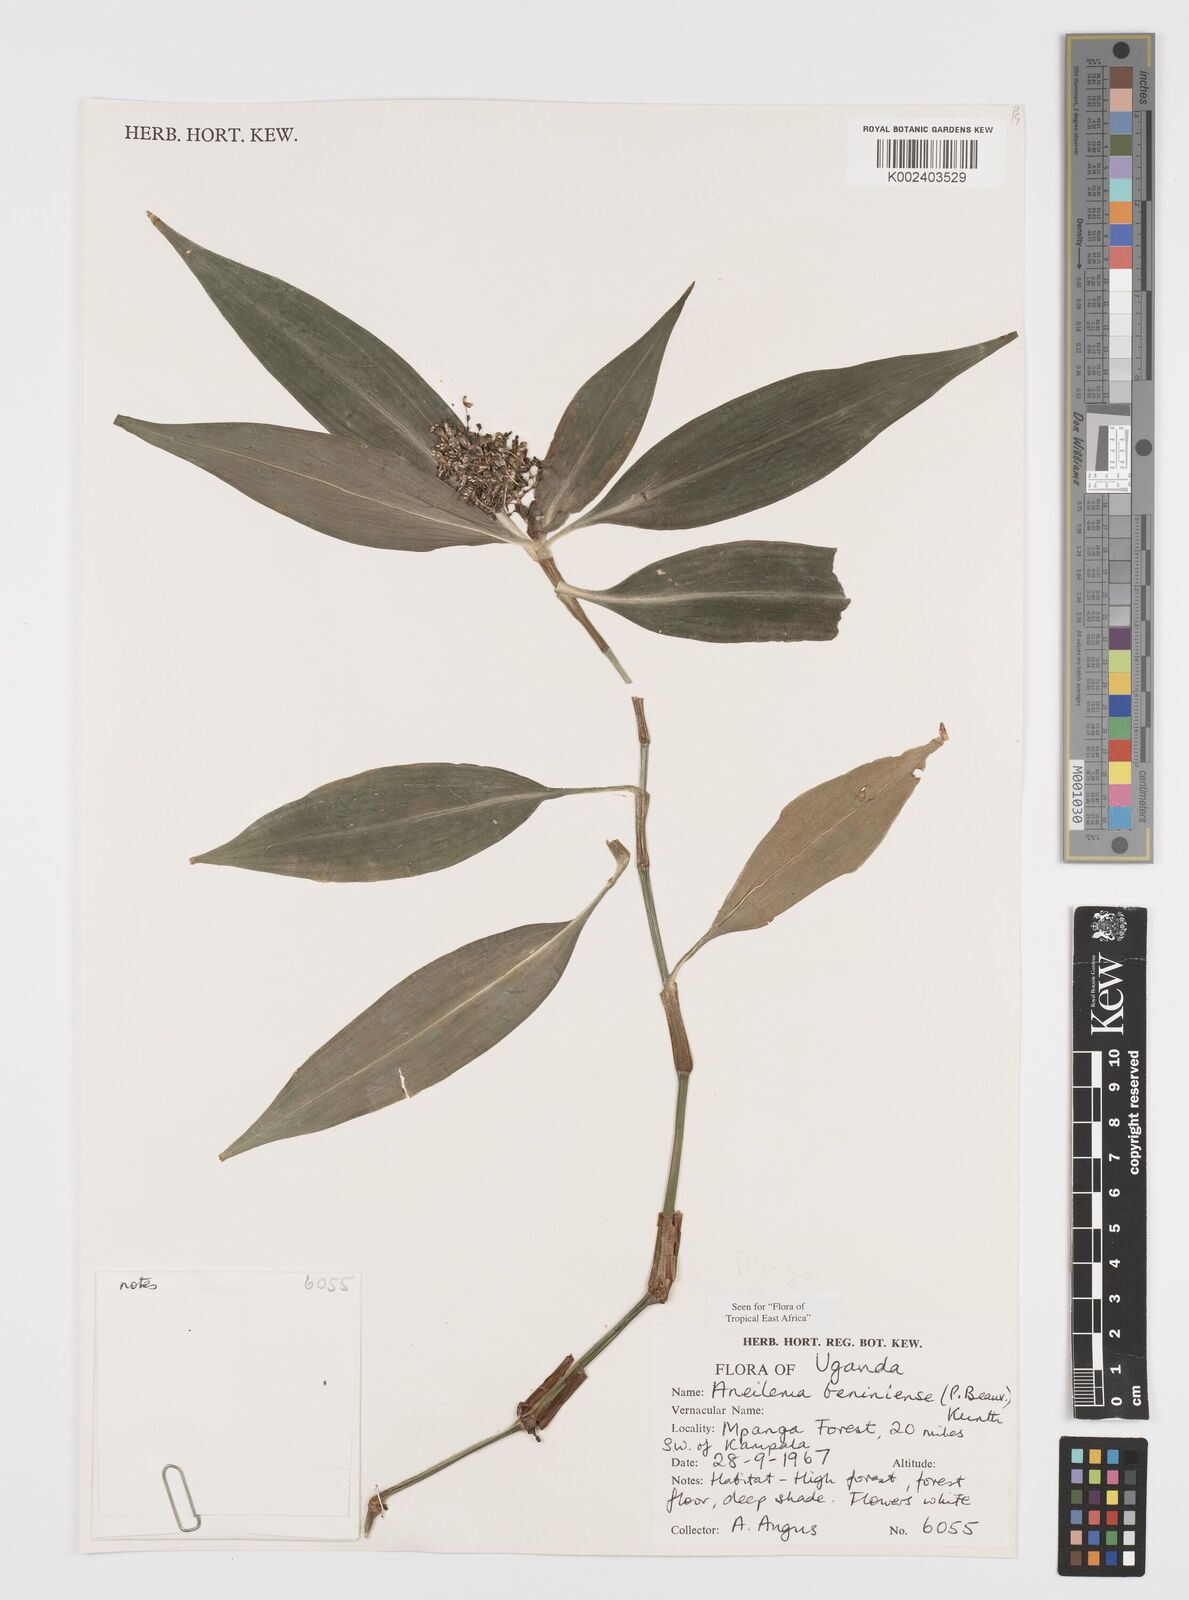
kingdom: Plantae
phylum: Tracheophyta
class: Liliopsida
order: Commelinales
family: Commelinaceae
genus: Aneilema
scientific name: Aneilema beniniense
